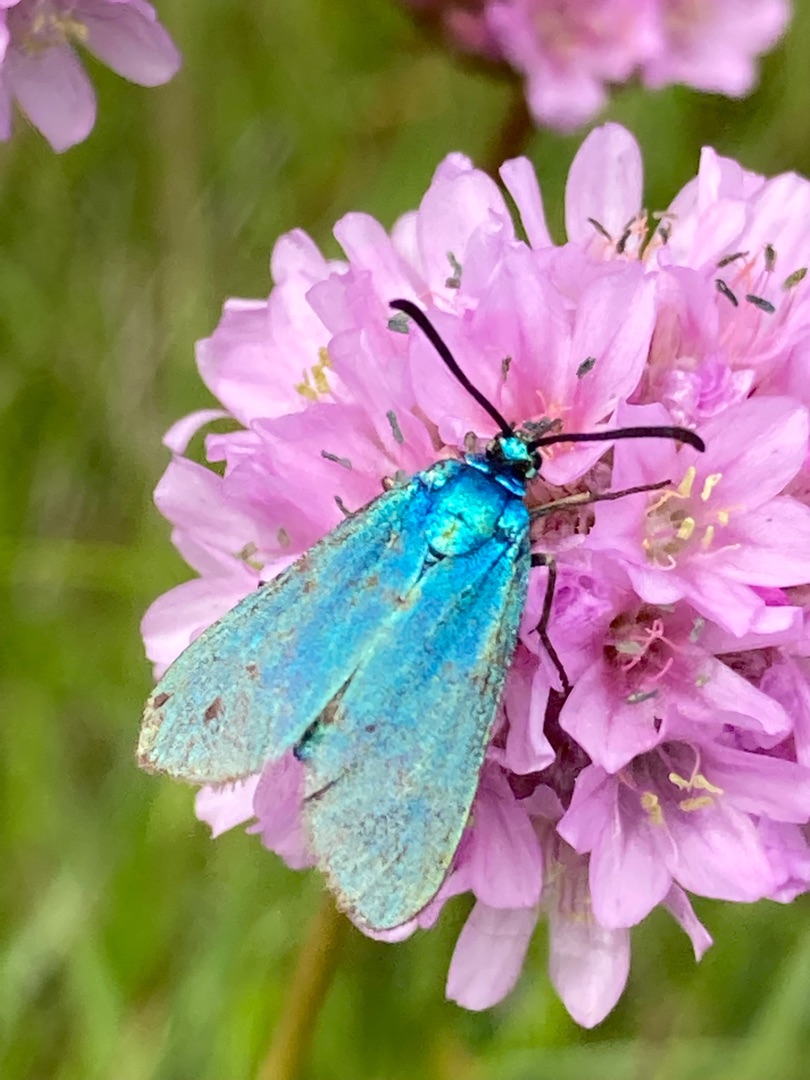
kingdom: Animalia
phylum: Arthropoda
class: Insecta
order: Lepidoptera
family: Zygaenidae
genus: Adscita
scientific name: Adscita statices
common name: Metalvinge
